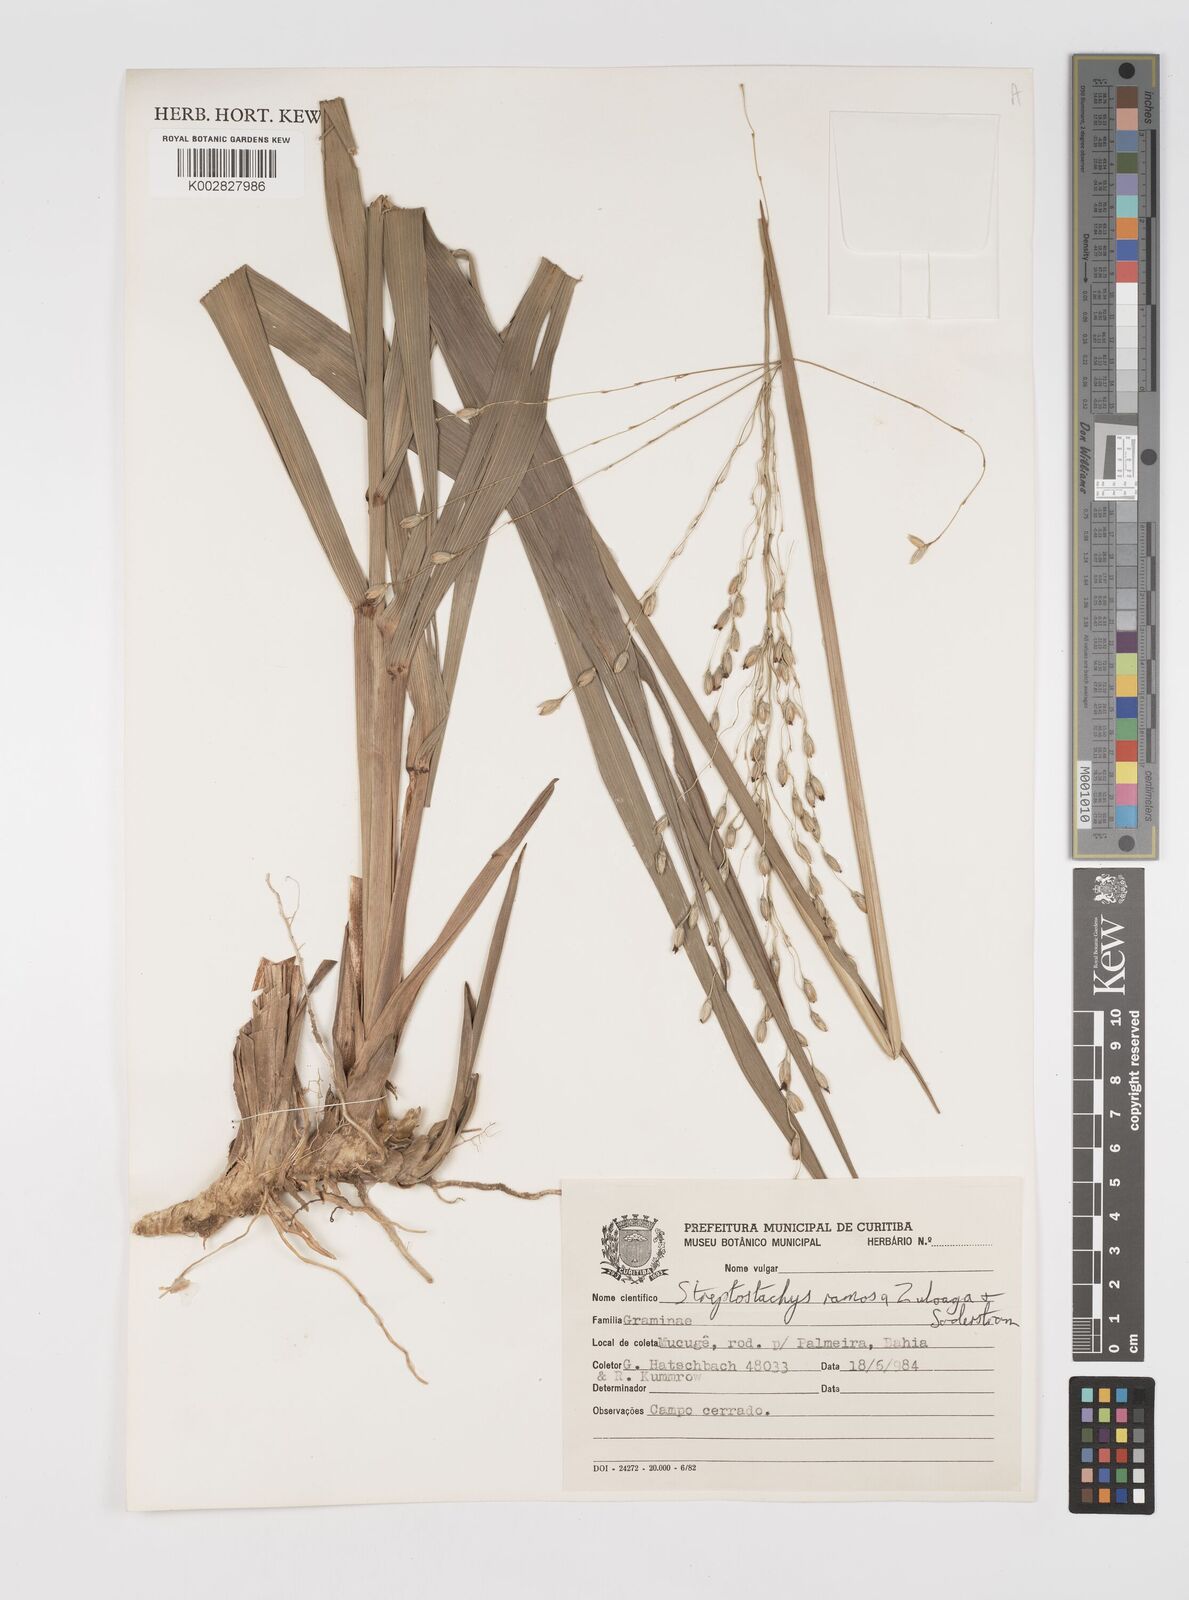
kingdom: Plantae
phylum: Tracheophyta
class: Liliopsida
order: Poales
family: Poaceae
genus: Oncorachis
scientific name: Oncorachis ramosa
